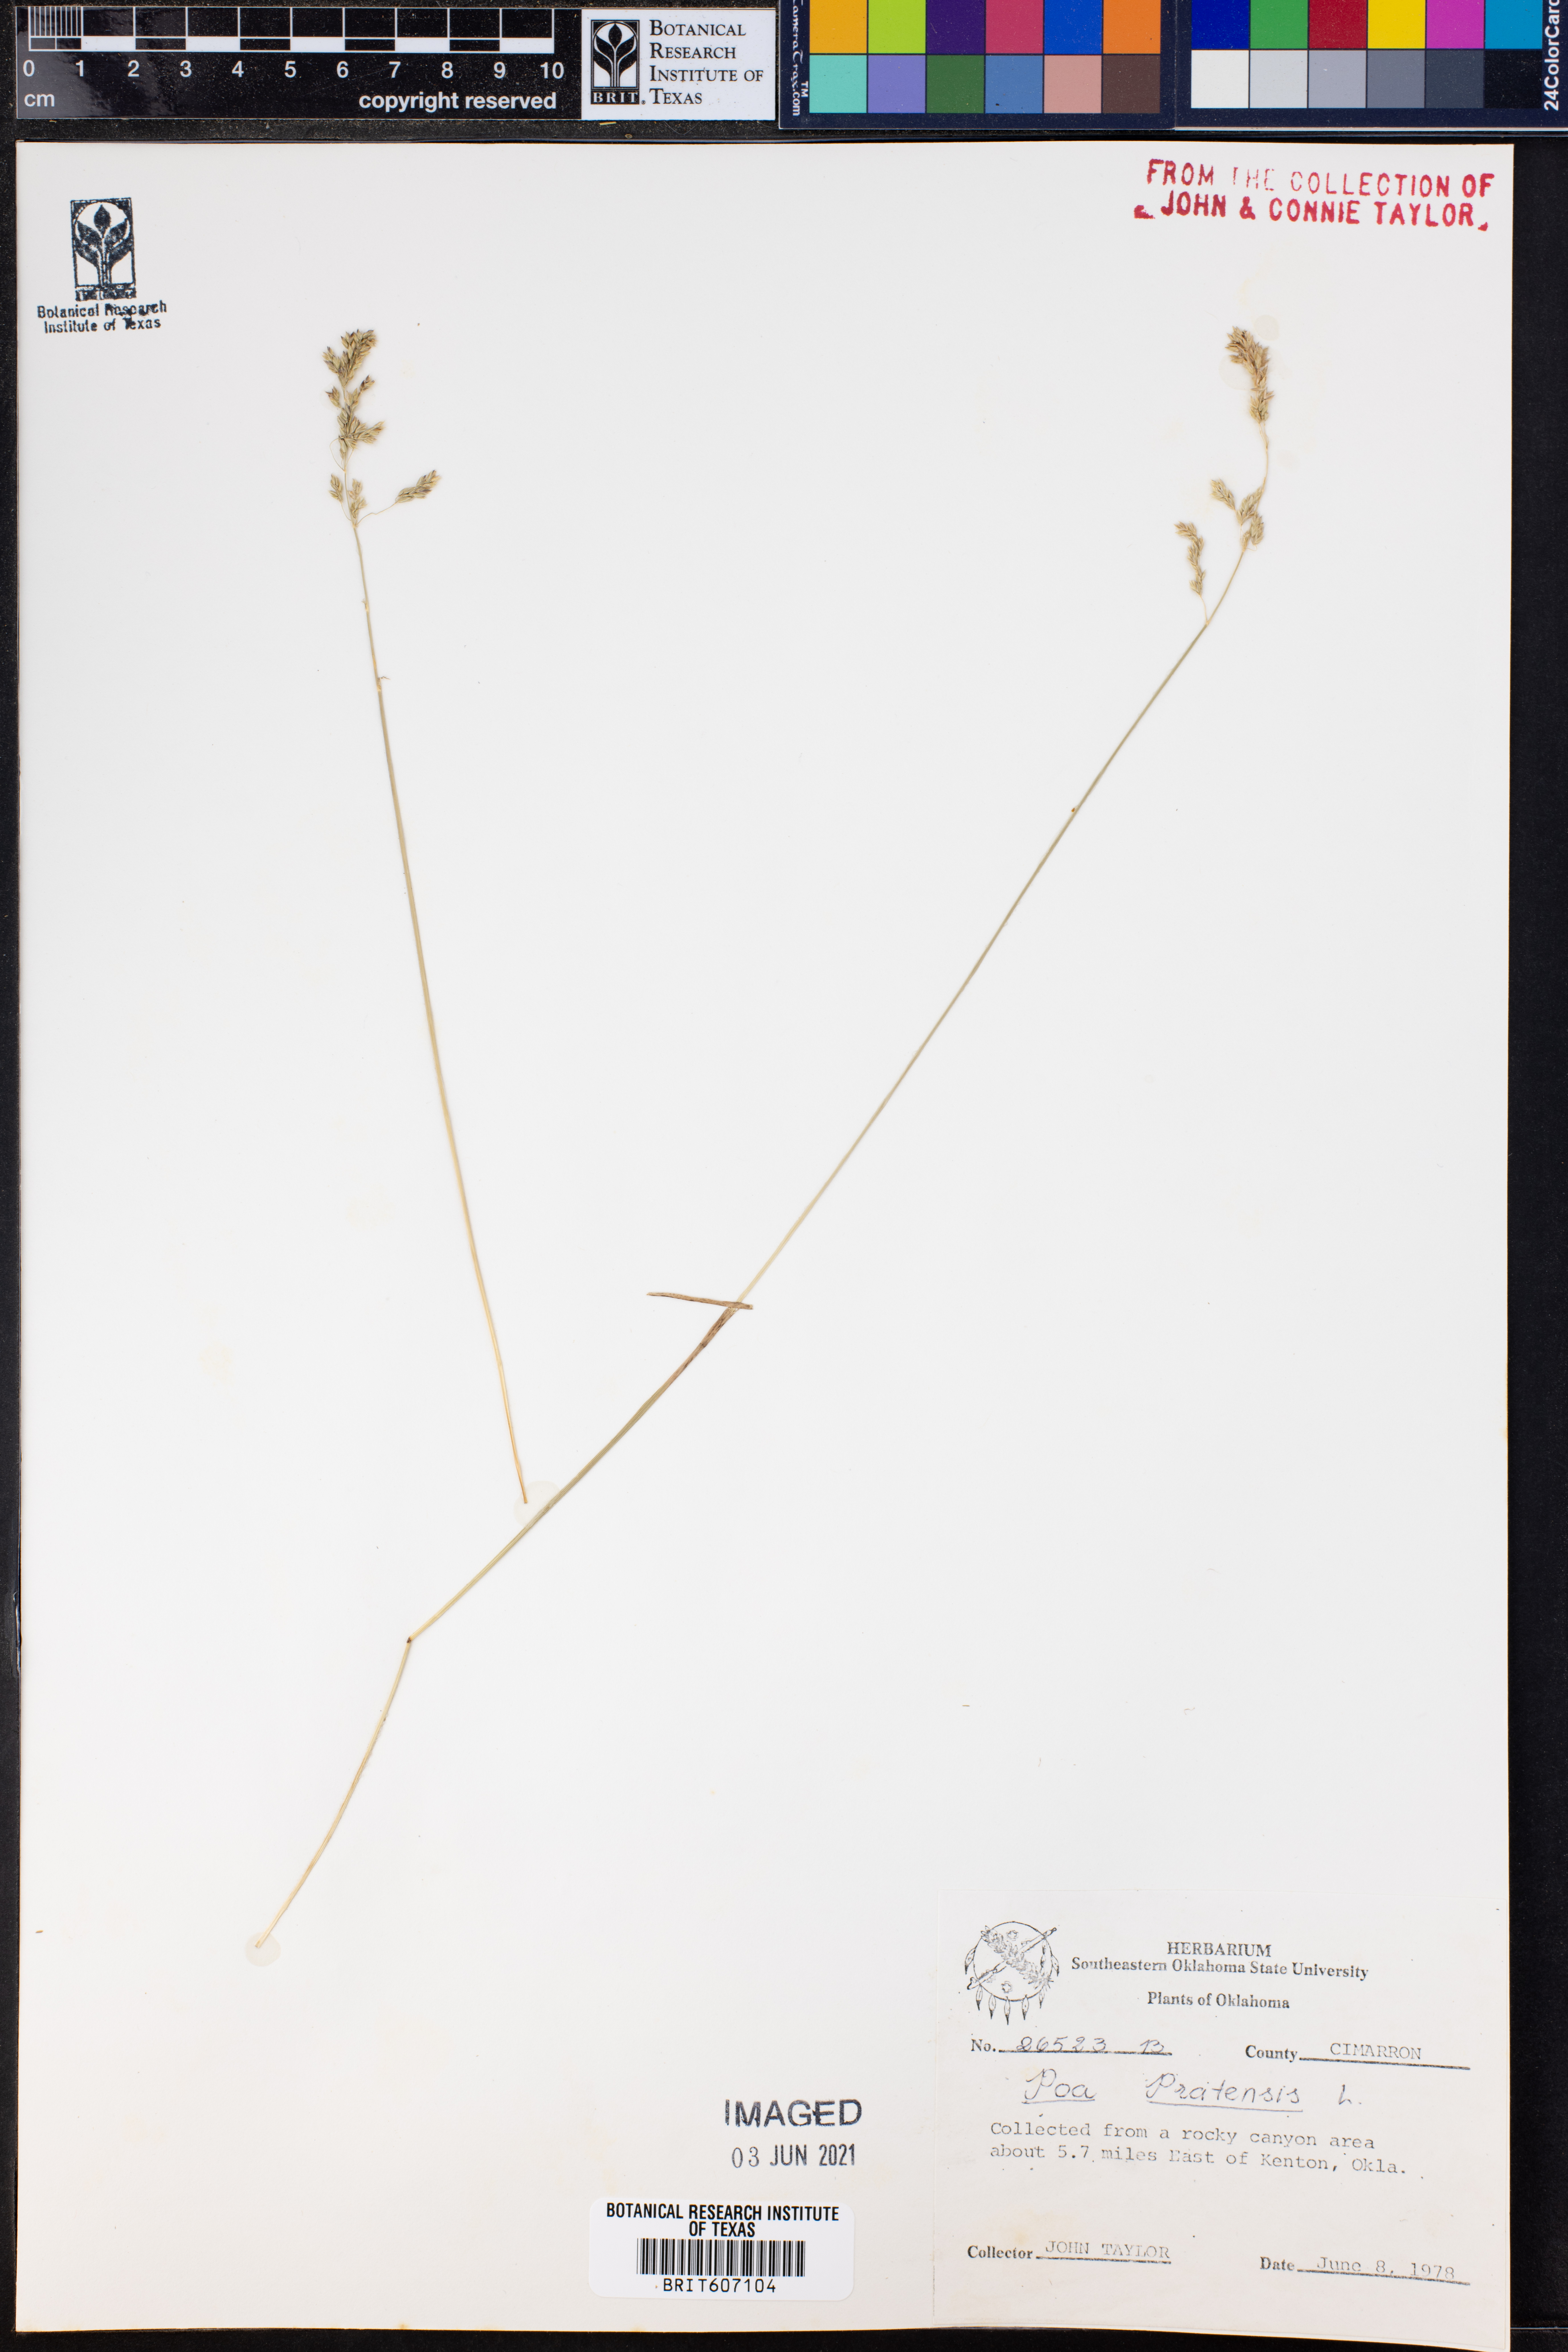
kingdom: Plantae
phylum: Tracheophyta
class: Liliopsida
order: Poales
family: Poaceae
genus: Poa
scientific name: Poa pratensis
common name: Kentucky bluegrass
